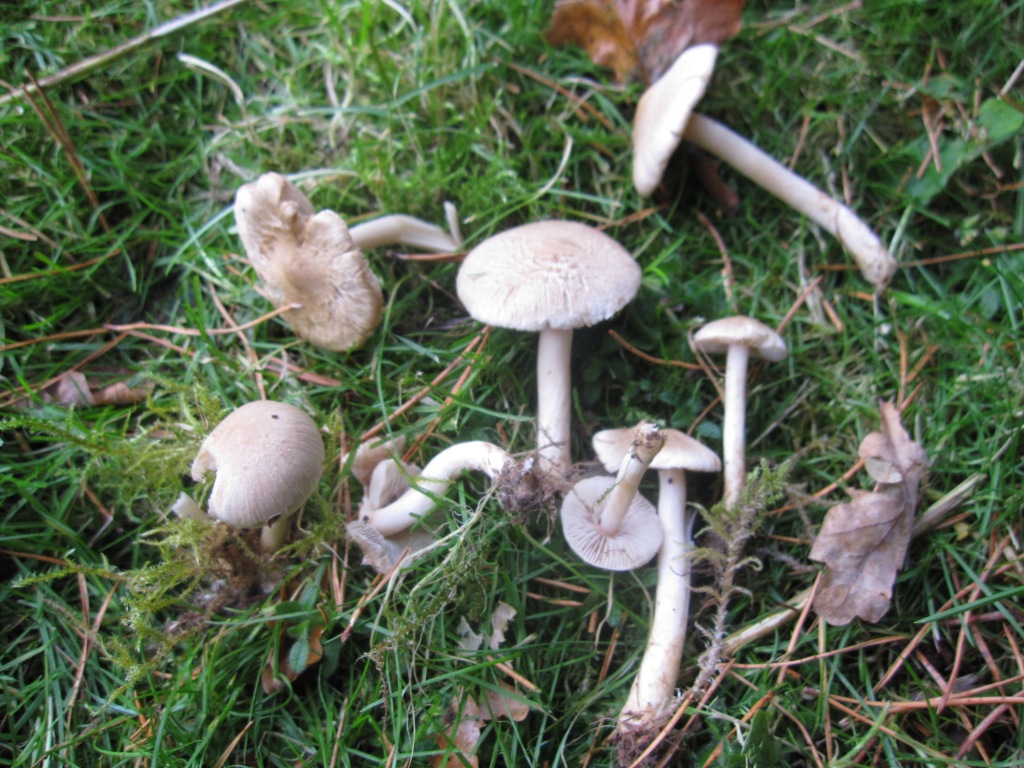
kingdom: Fungi
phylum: Basidiomycota
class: Agaricomycetes
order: Agaricales
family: Inocybaceae
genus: Inocybe
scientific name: Inocybe sindonia
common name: bleg trævlhat
